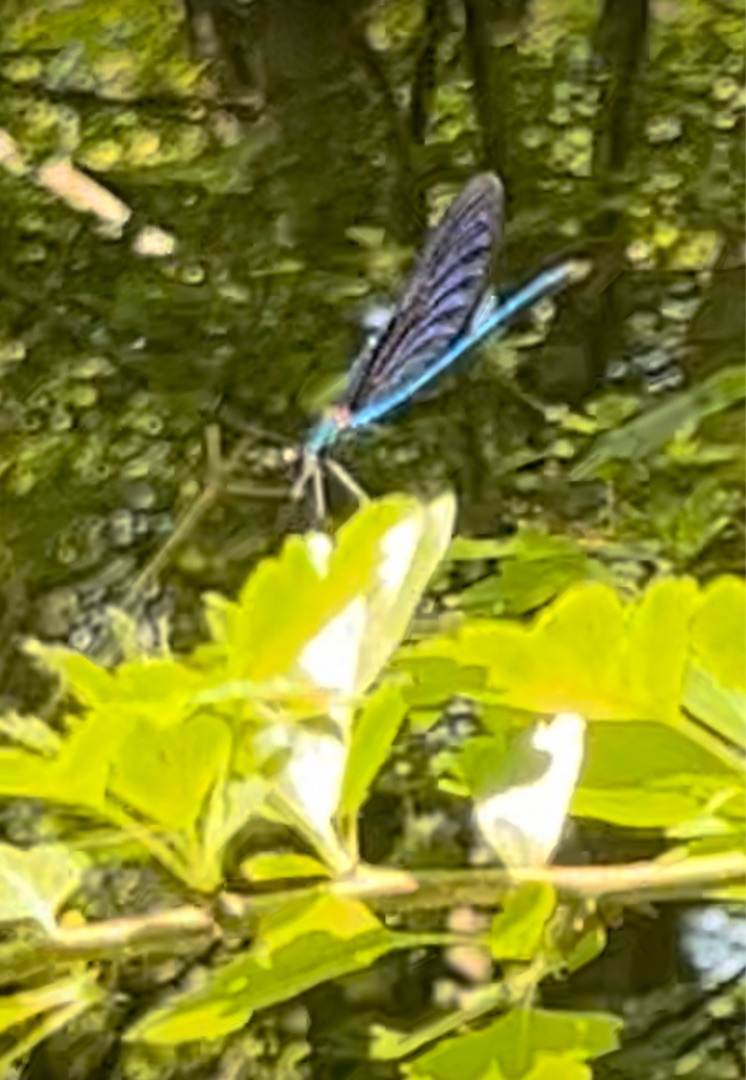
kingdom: Animalia
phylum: Arthropoda
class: Insecta
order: Odonata
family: Calopterygidae
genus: Calopteryx
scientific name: Calopteryx virgo
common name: Blåvinget pragtvandnymfe
